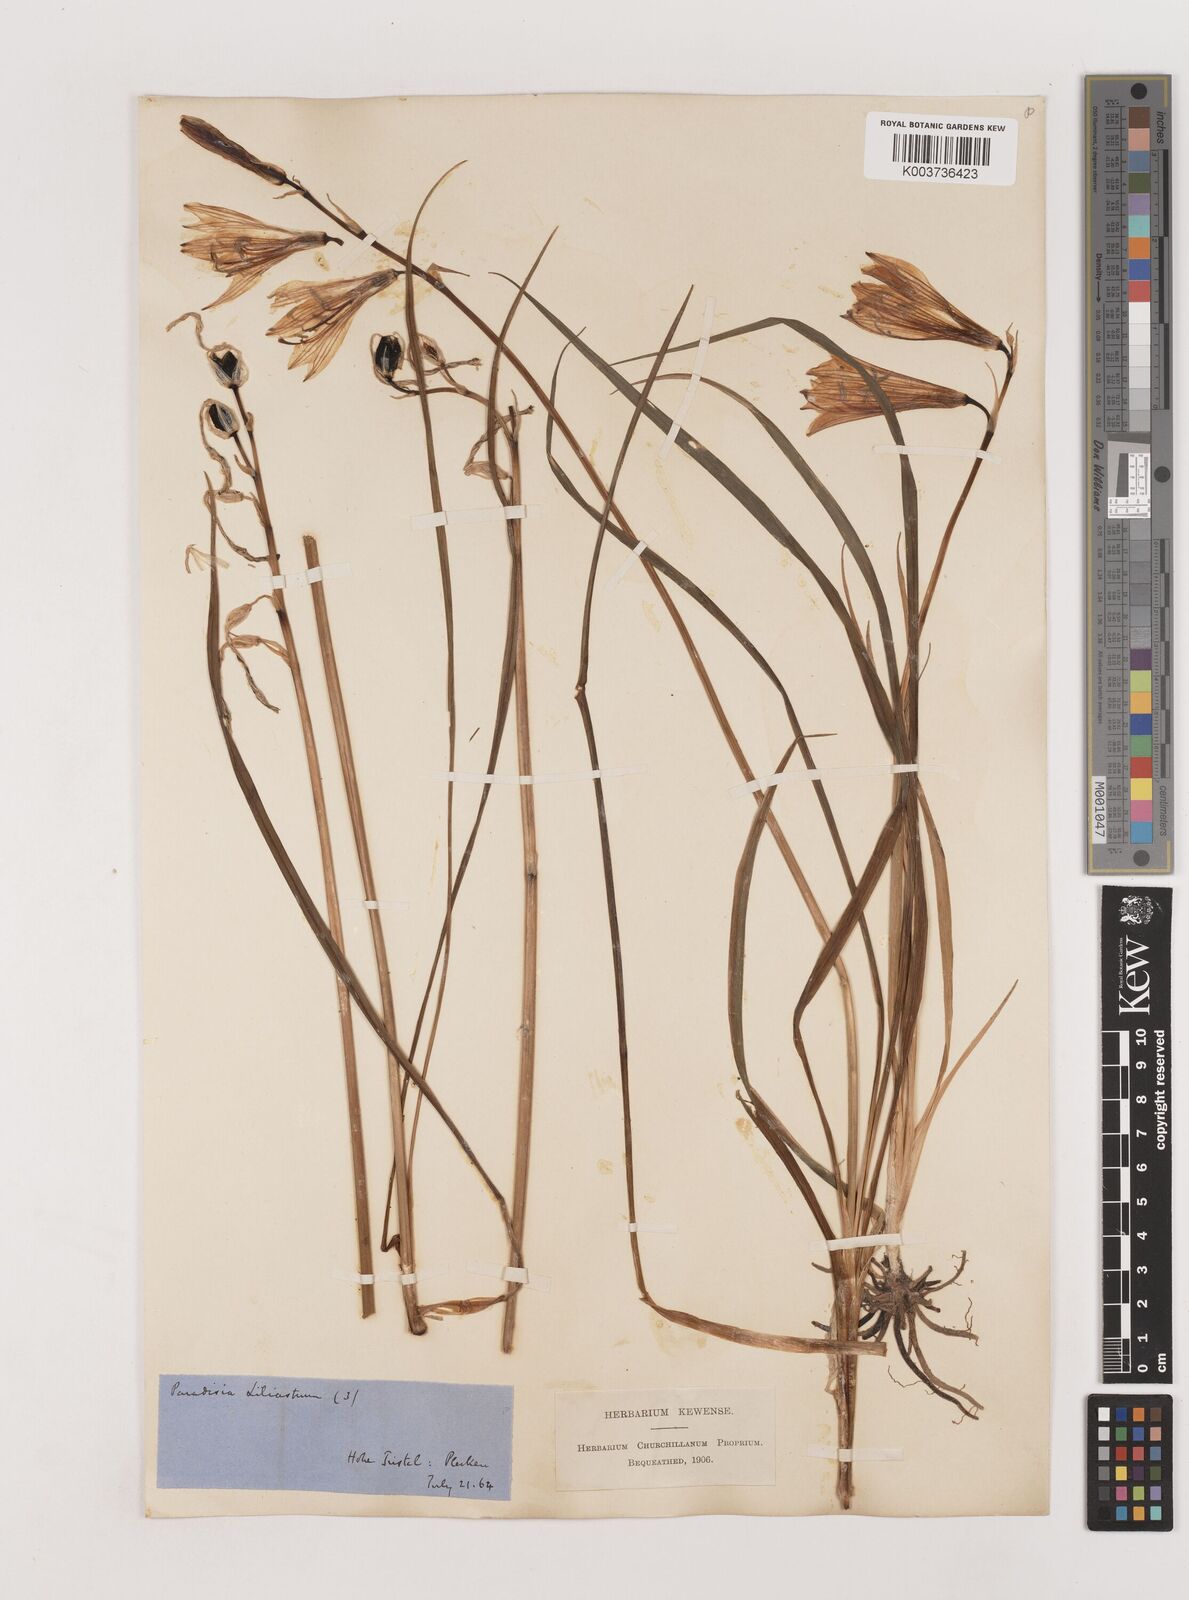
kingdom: Plantae
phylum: Tracheophyta
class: Liliopsida
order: Asparagales
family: Asparagaceae
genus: Paradisea
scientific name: Paradisea liliastrum
